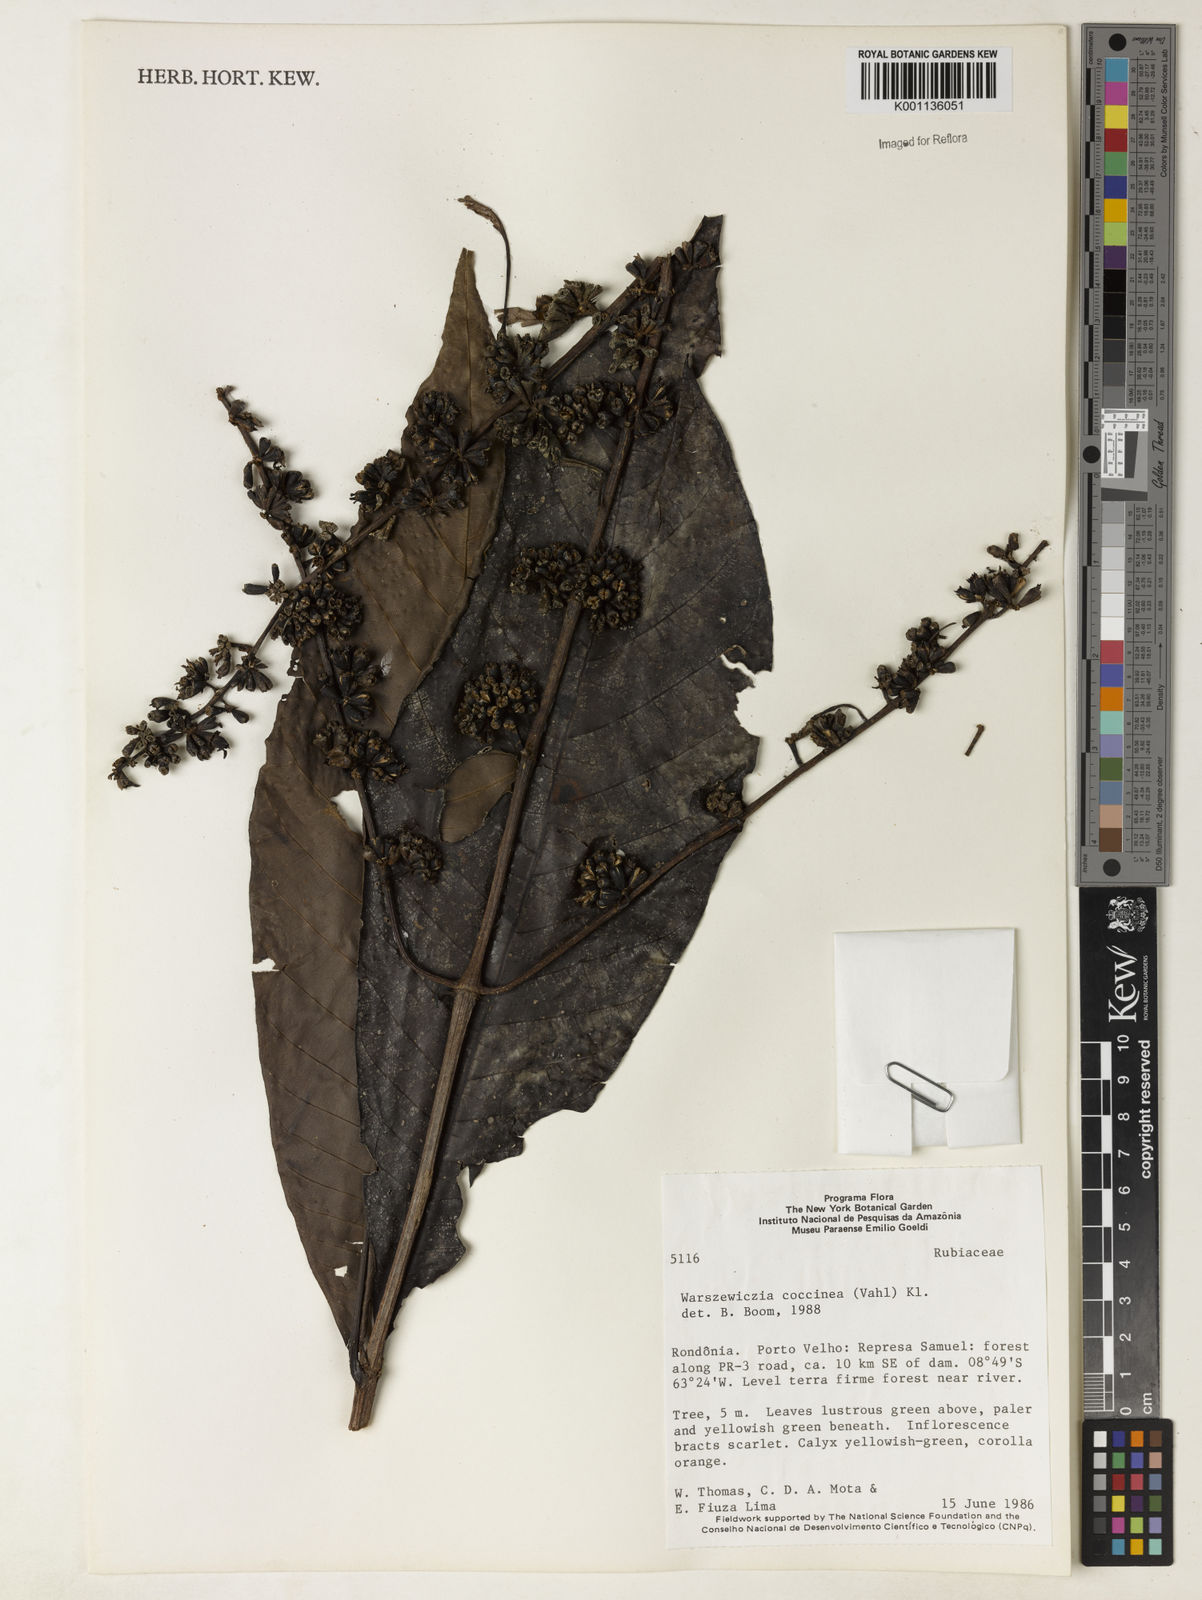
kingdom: Plantae
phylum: Tracheophyta
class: Magnoliopsida
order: Gentianales
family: Rubiaceae
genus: Warszewiczia
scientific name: Warszewiczia coccinea
